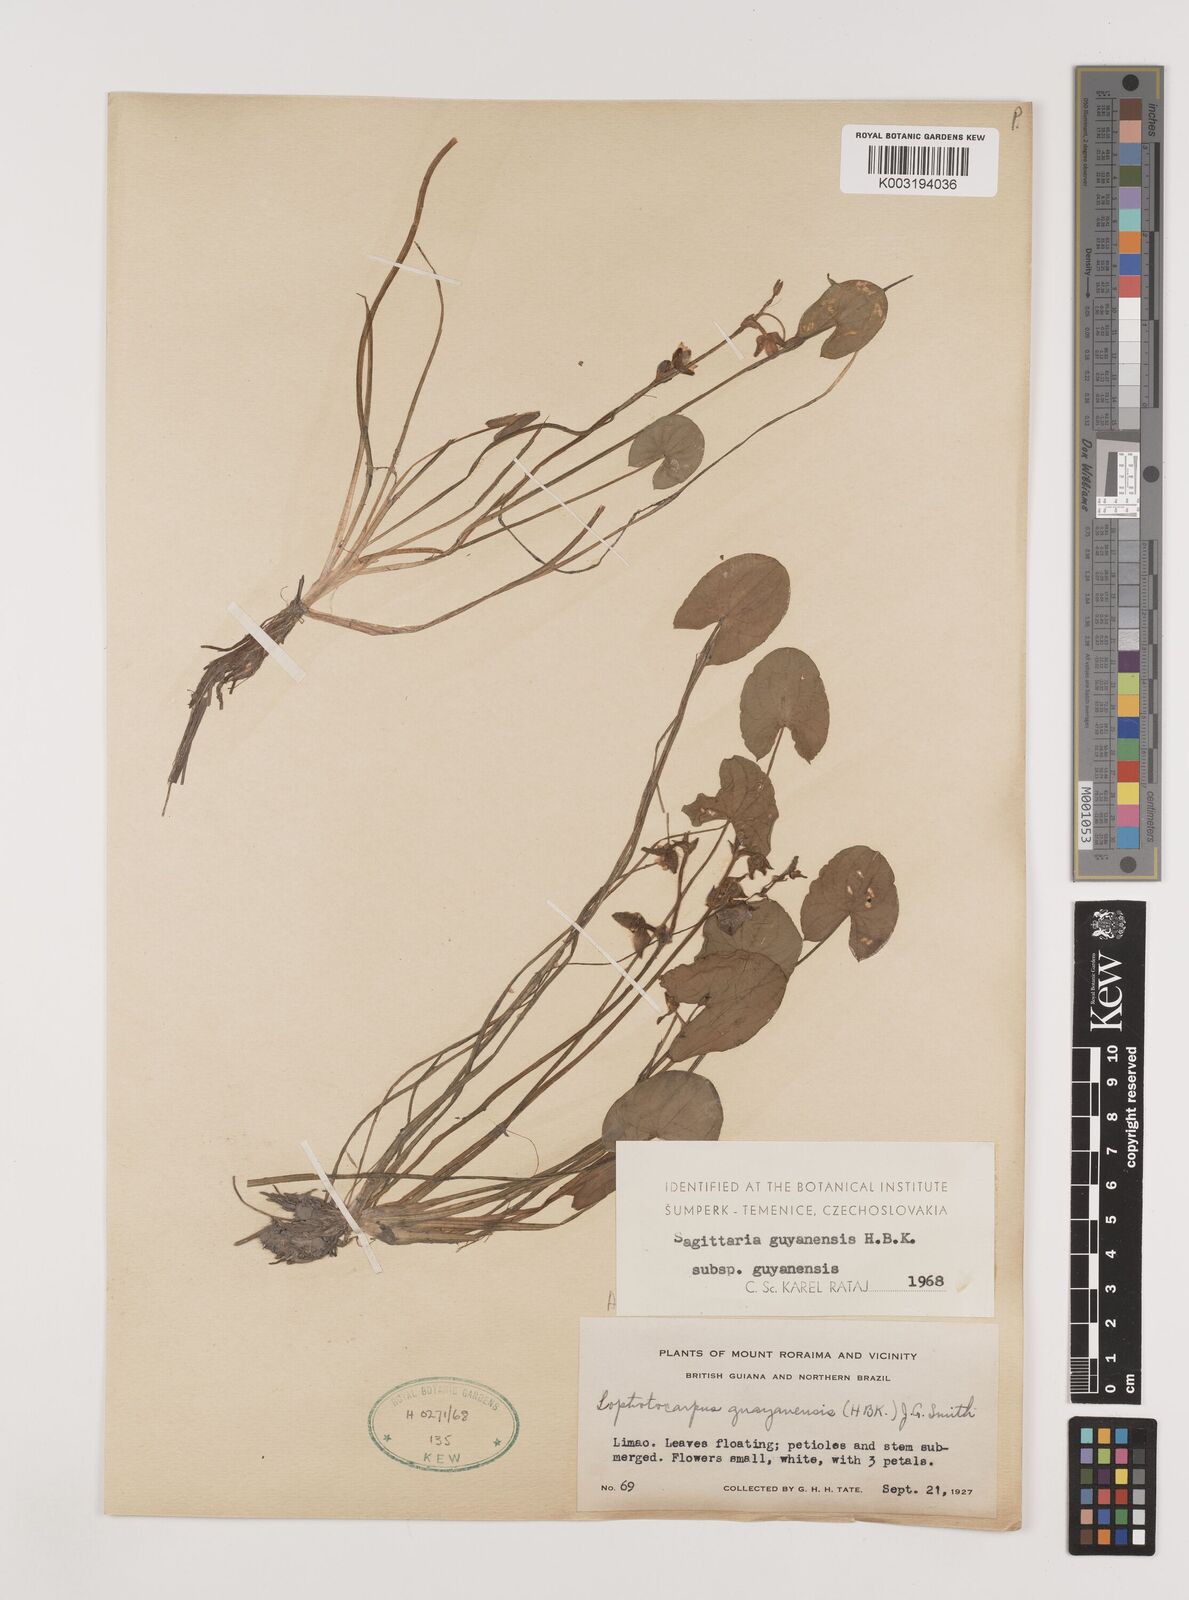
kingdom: Plantae
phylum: Tracheophyta
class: Liliopsida
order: Alismatales
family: Alismataceae
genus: Sagittaria
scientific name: Sagittaria guayanensis
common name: Guyanese arrowhead
